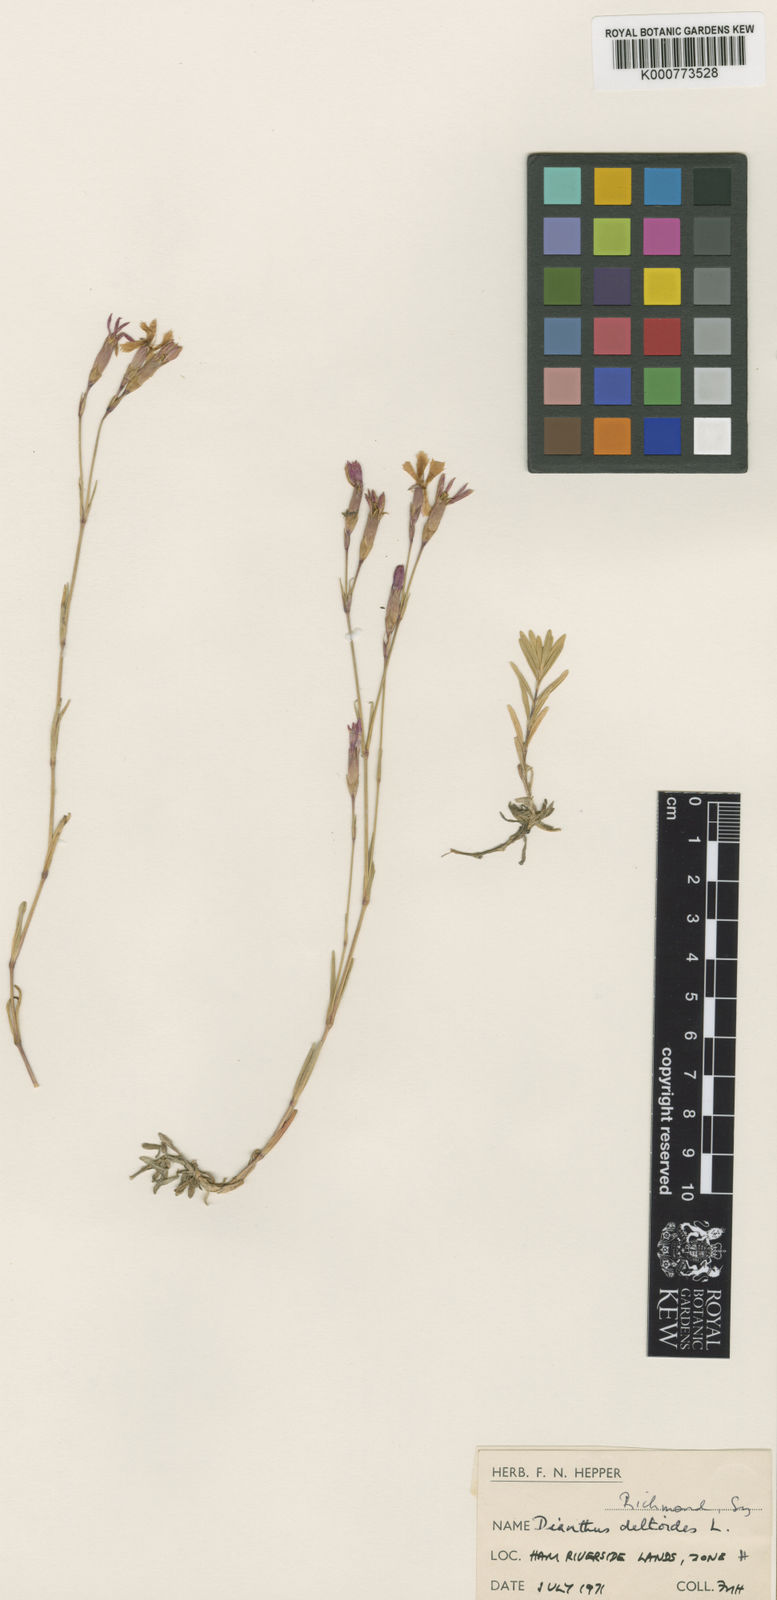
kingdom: Plantae
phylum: Tracheophyta
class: Magnoliopsida
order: Caryophyllales
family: Caryophyllaceae
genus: Dianthus
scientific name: Dianthus deltoides
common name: Maiden pink
